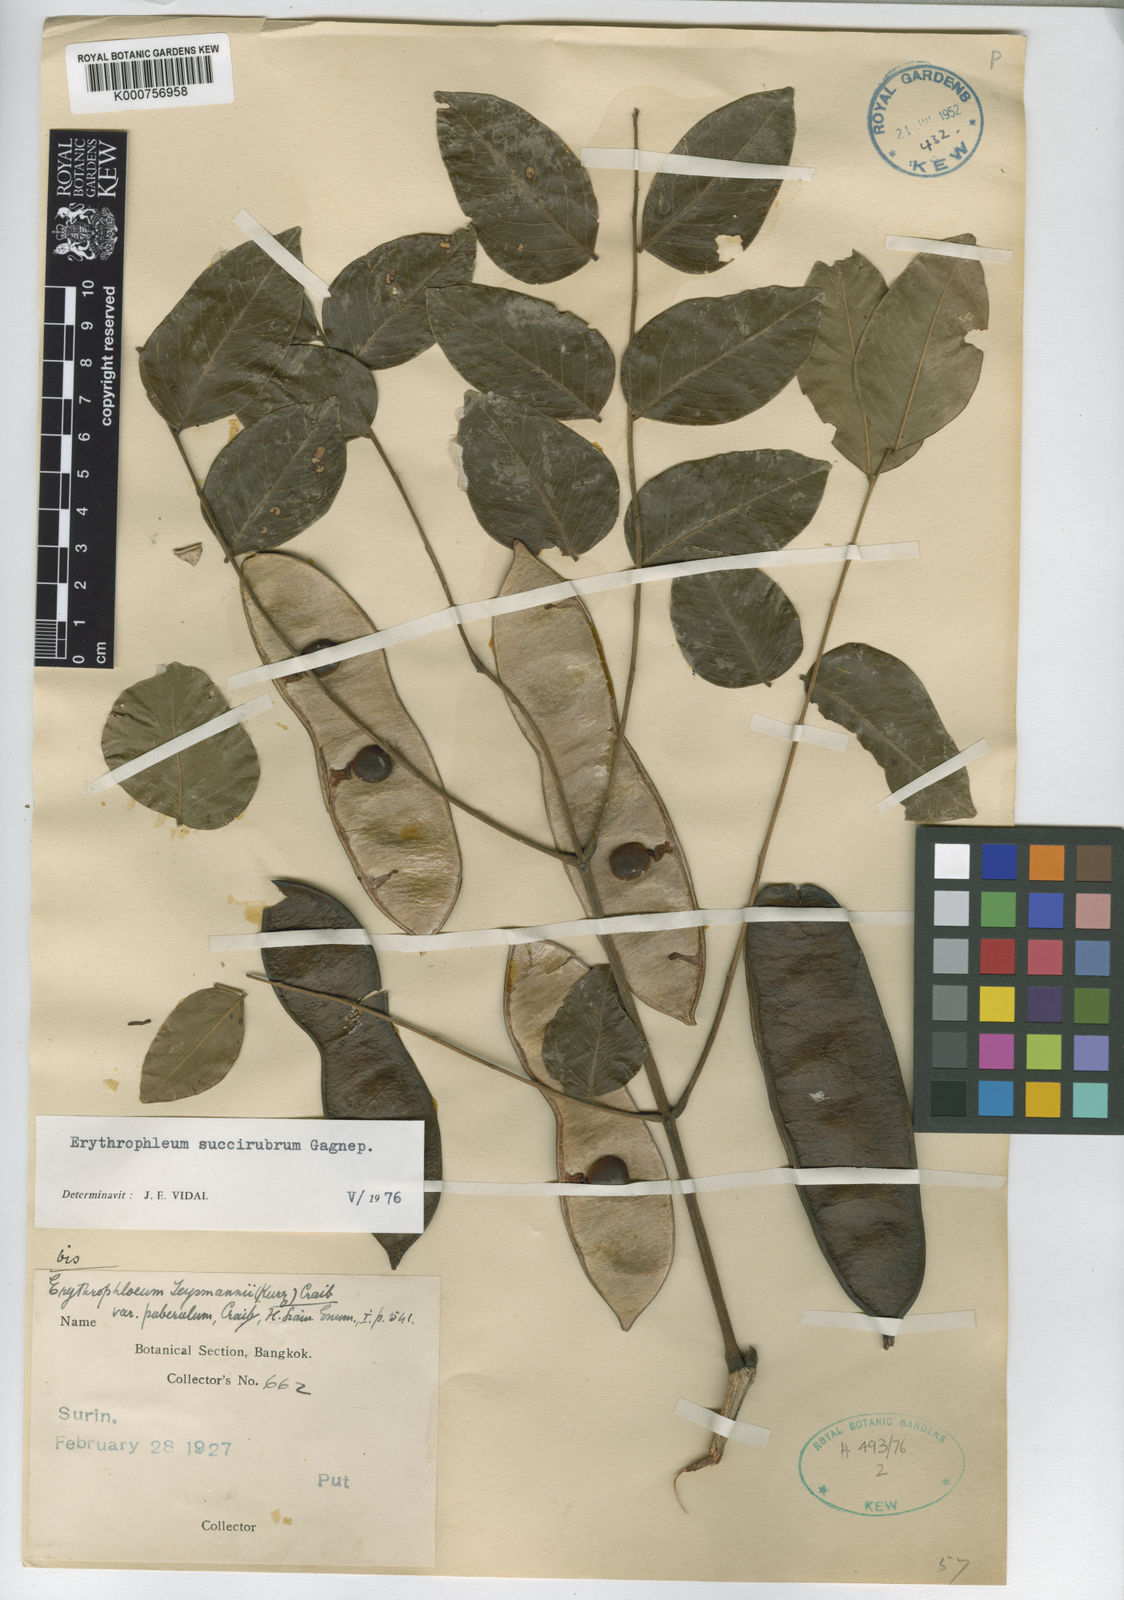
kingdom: Plantae
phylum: Tracheophyta
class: Magnoliopsida
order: Fabales
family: Fabaceae
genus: Erythrophleum
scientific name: Erythrophleum succirubrum
